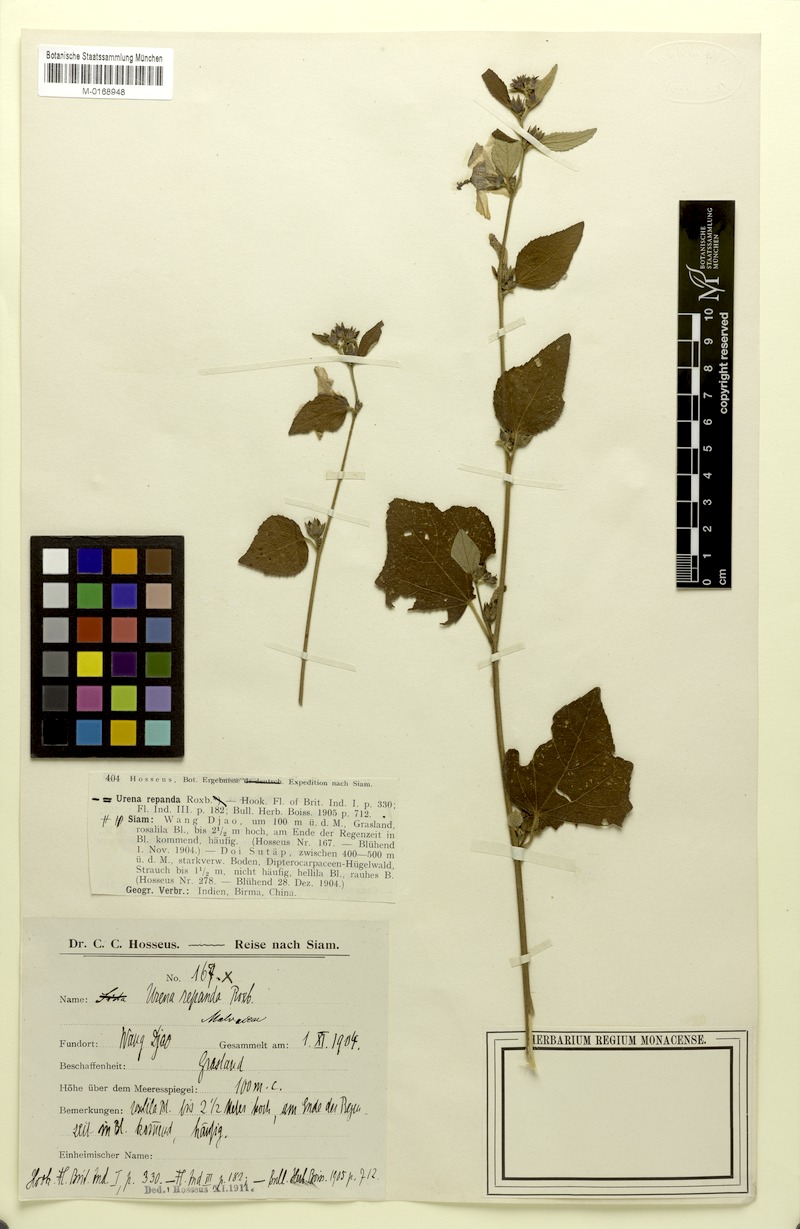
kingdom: Plantae
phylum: Tracheophyta
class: Magnoliopsida
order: Malvales
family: Malvaceae
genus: Urena
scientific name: Urena repanda
